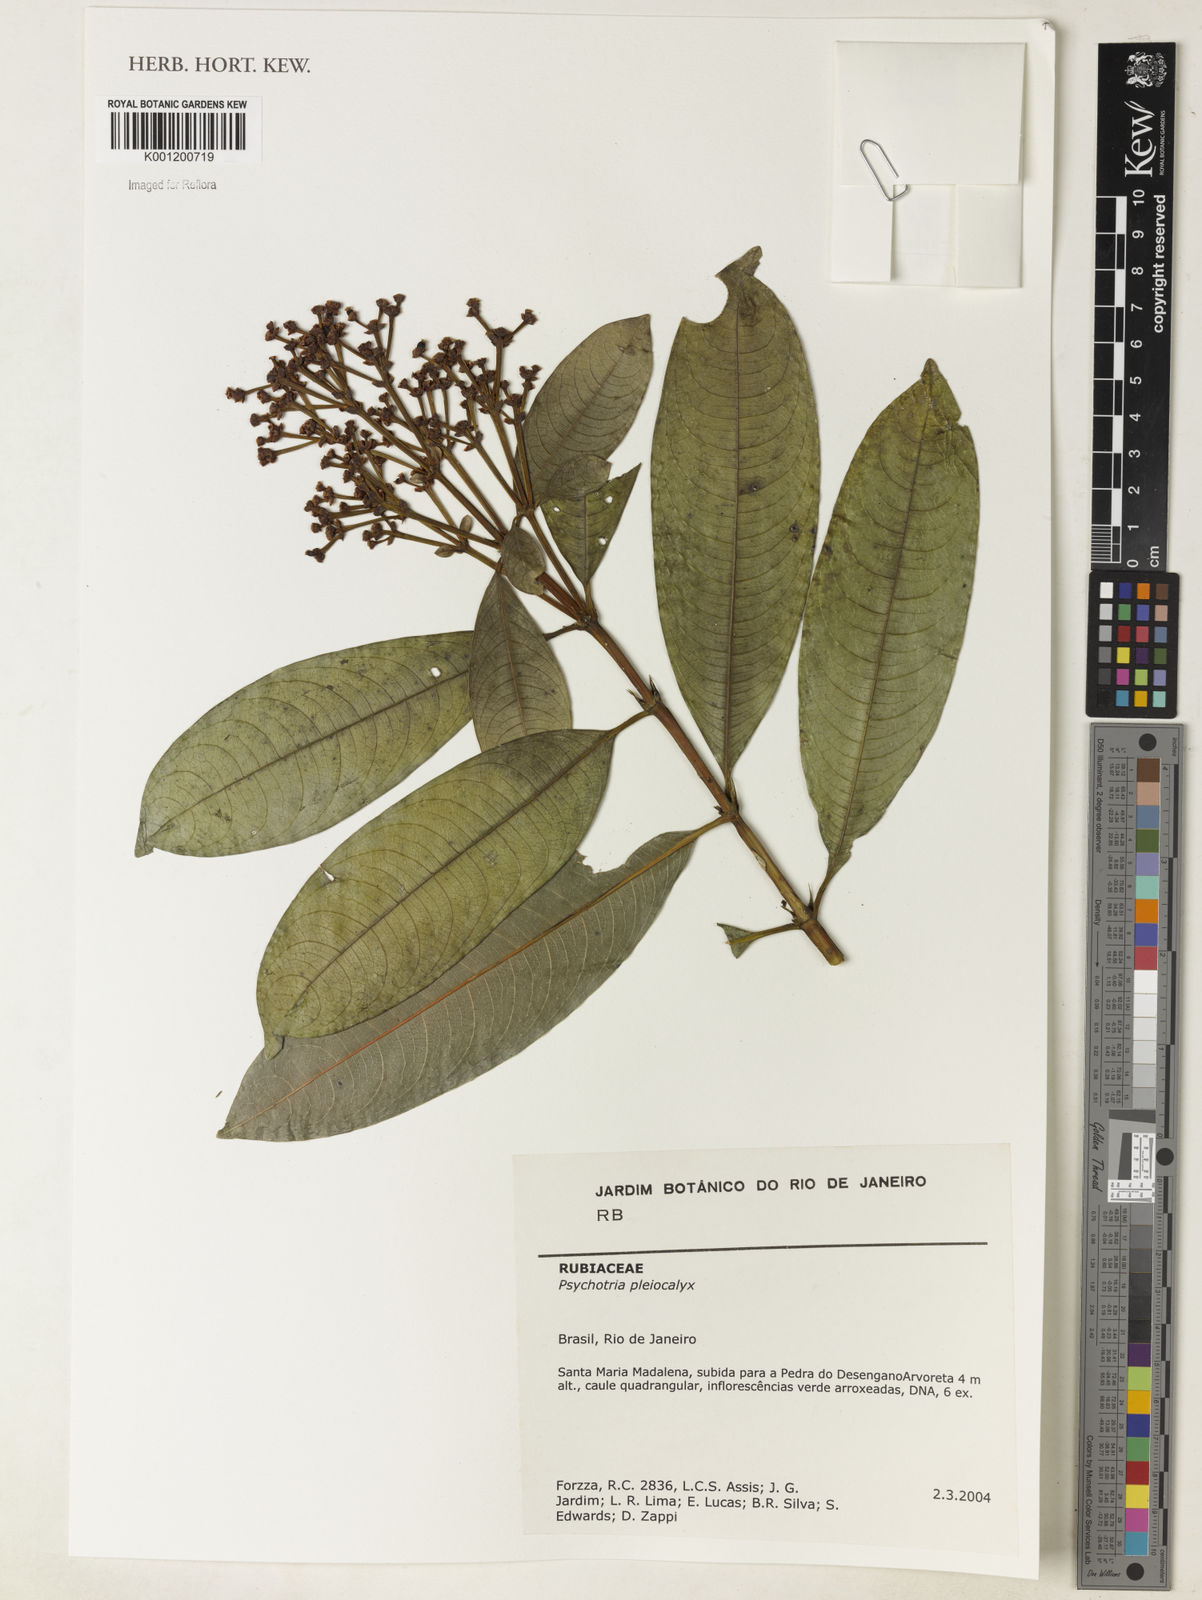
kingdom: Plantae
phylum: Tracheophyta
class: Magnoliopsida
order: Gentianales
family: Rubiaceae
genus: Psychotria
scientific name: Psychotria
